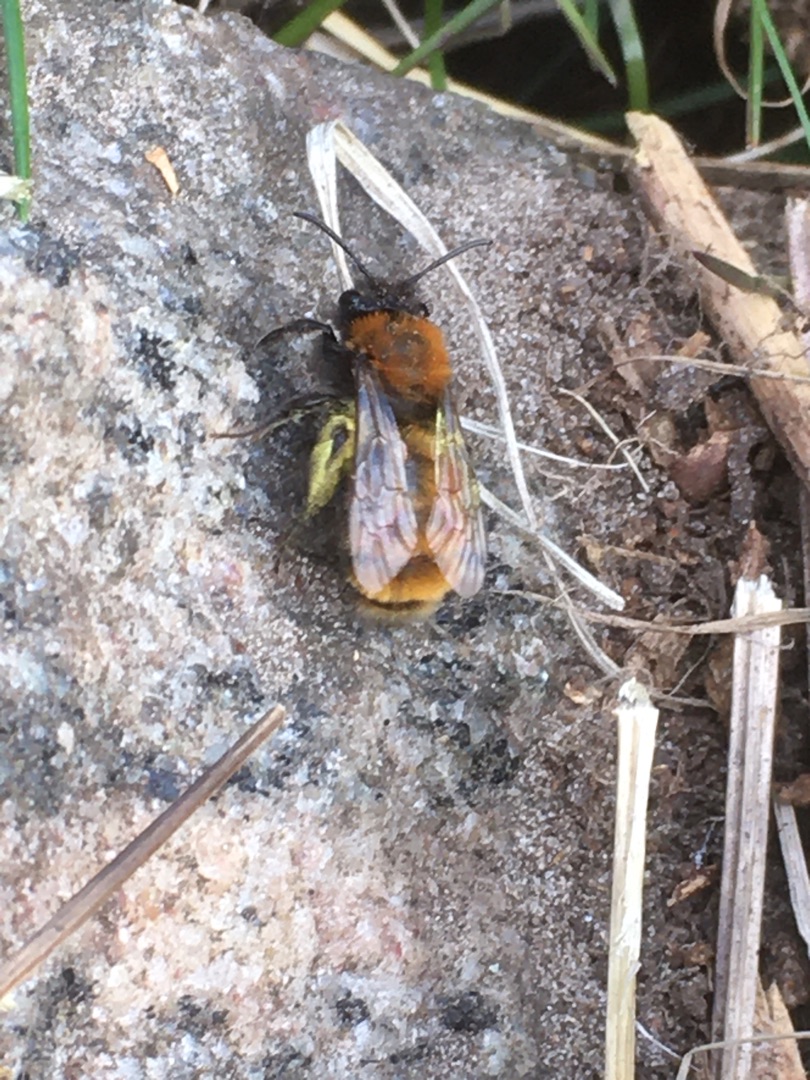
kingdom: Animalia
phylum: Arthropoda
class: Insecta
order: Hymenoptera
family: Andrenidae
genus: Andrena
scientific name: Andrena fulva
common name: Rødpelset jordbi
